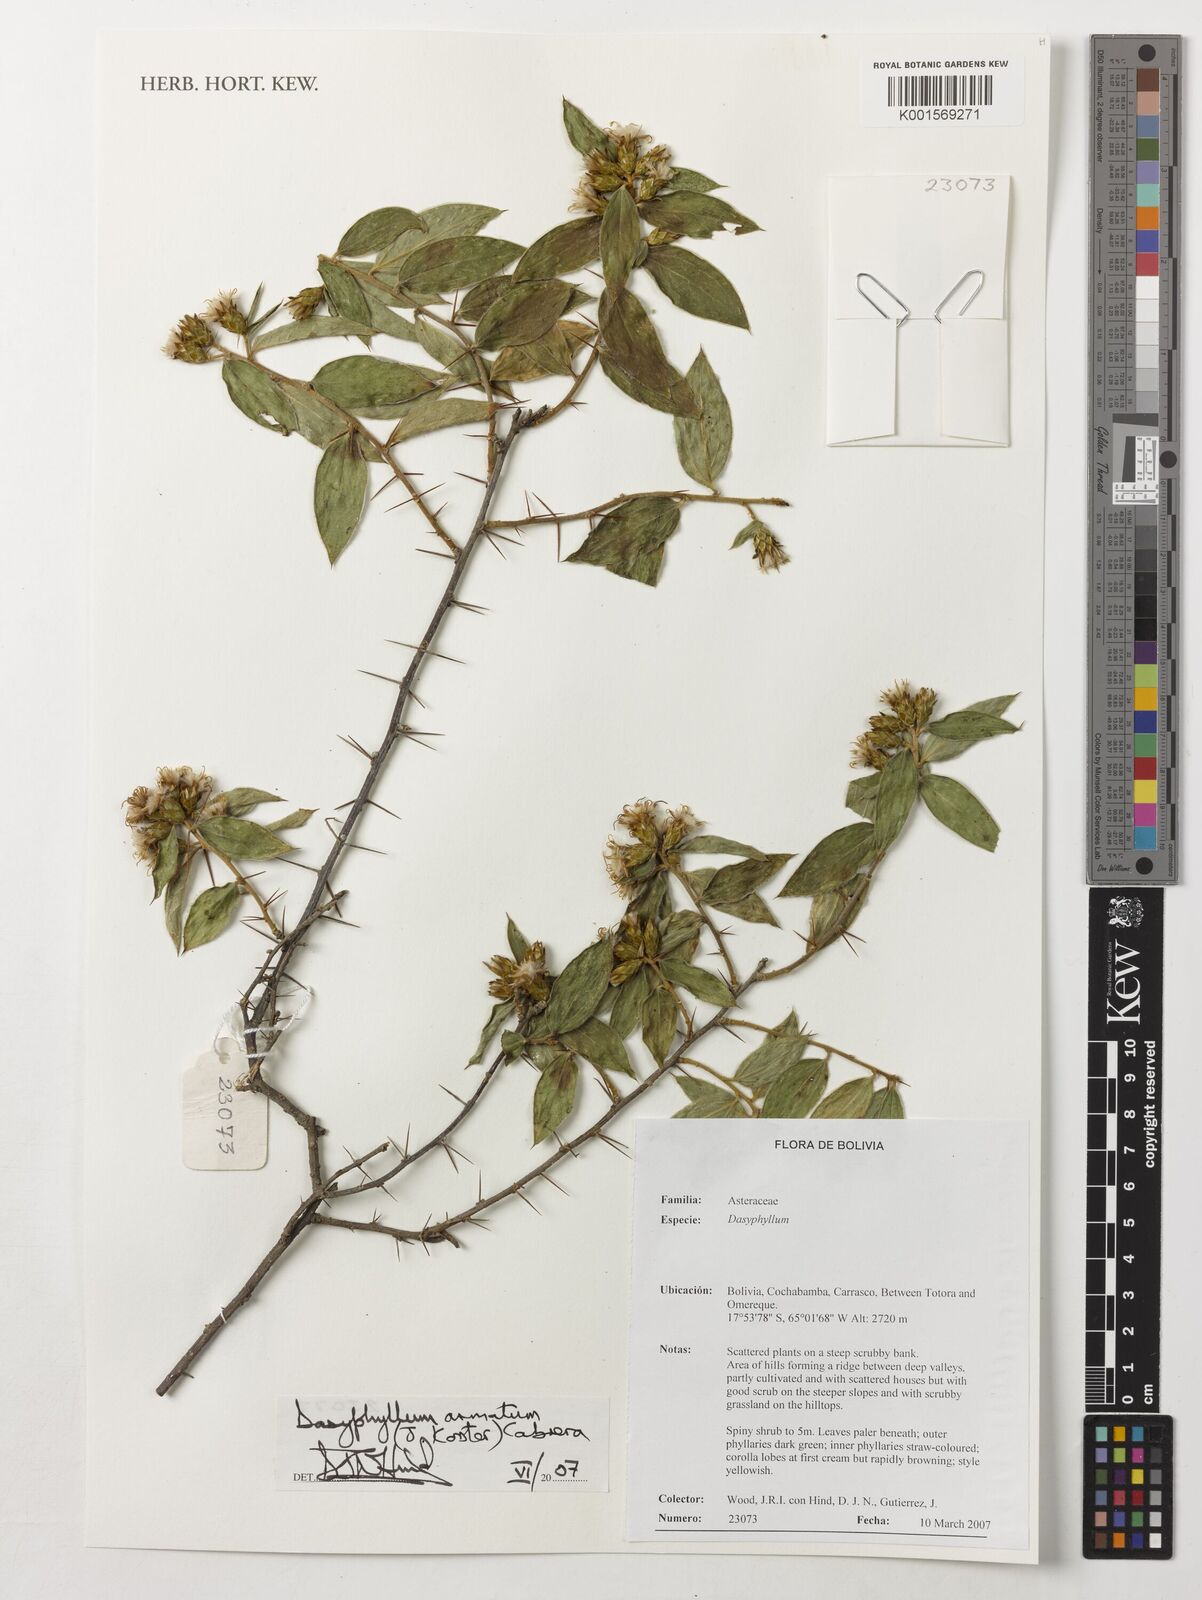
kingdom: Plantae
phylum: Tracheophyta
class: Magnoliopsida
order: Asterales
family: Asteraceae
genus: Dasyphyllum
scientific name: Dasyphyllum armatum
